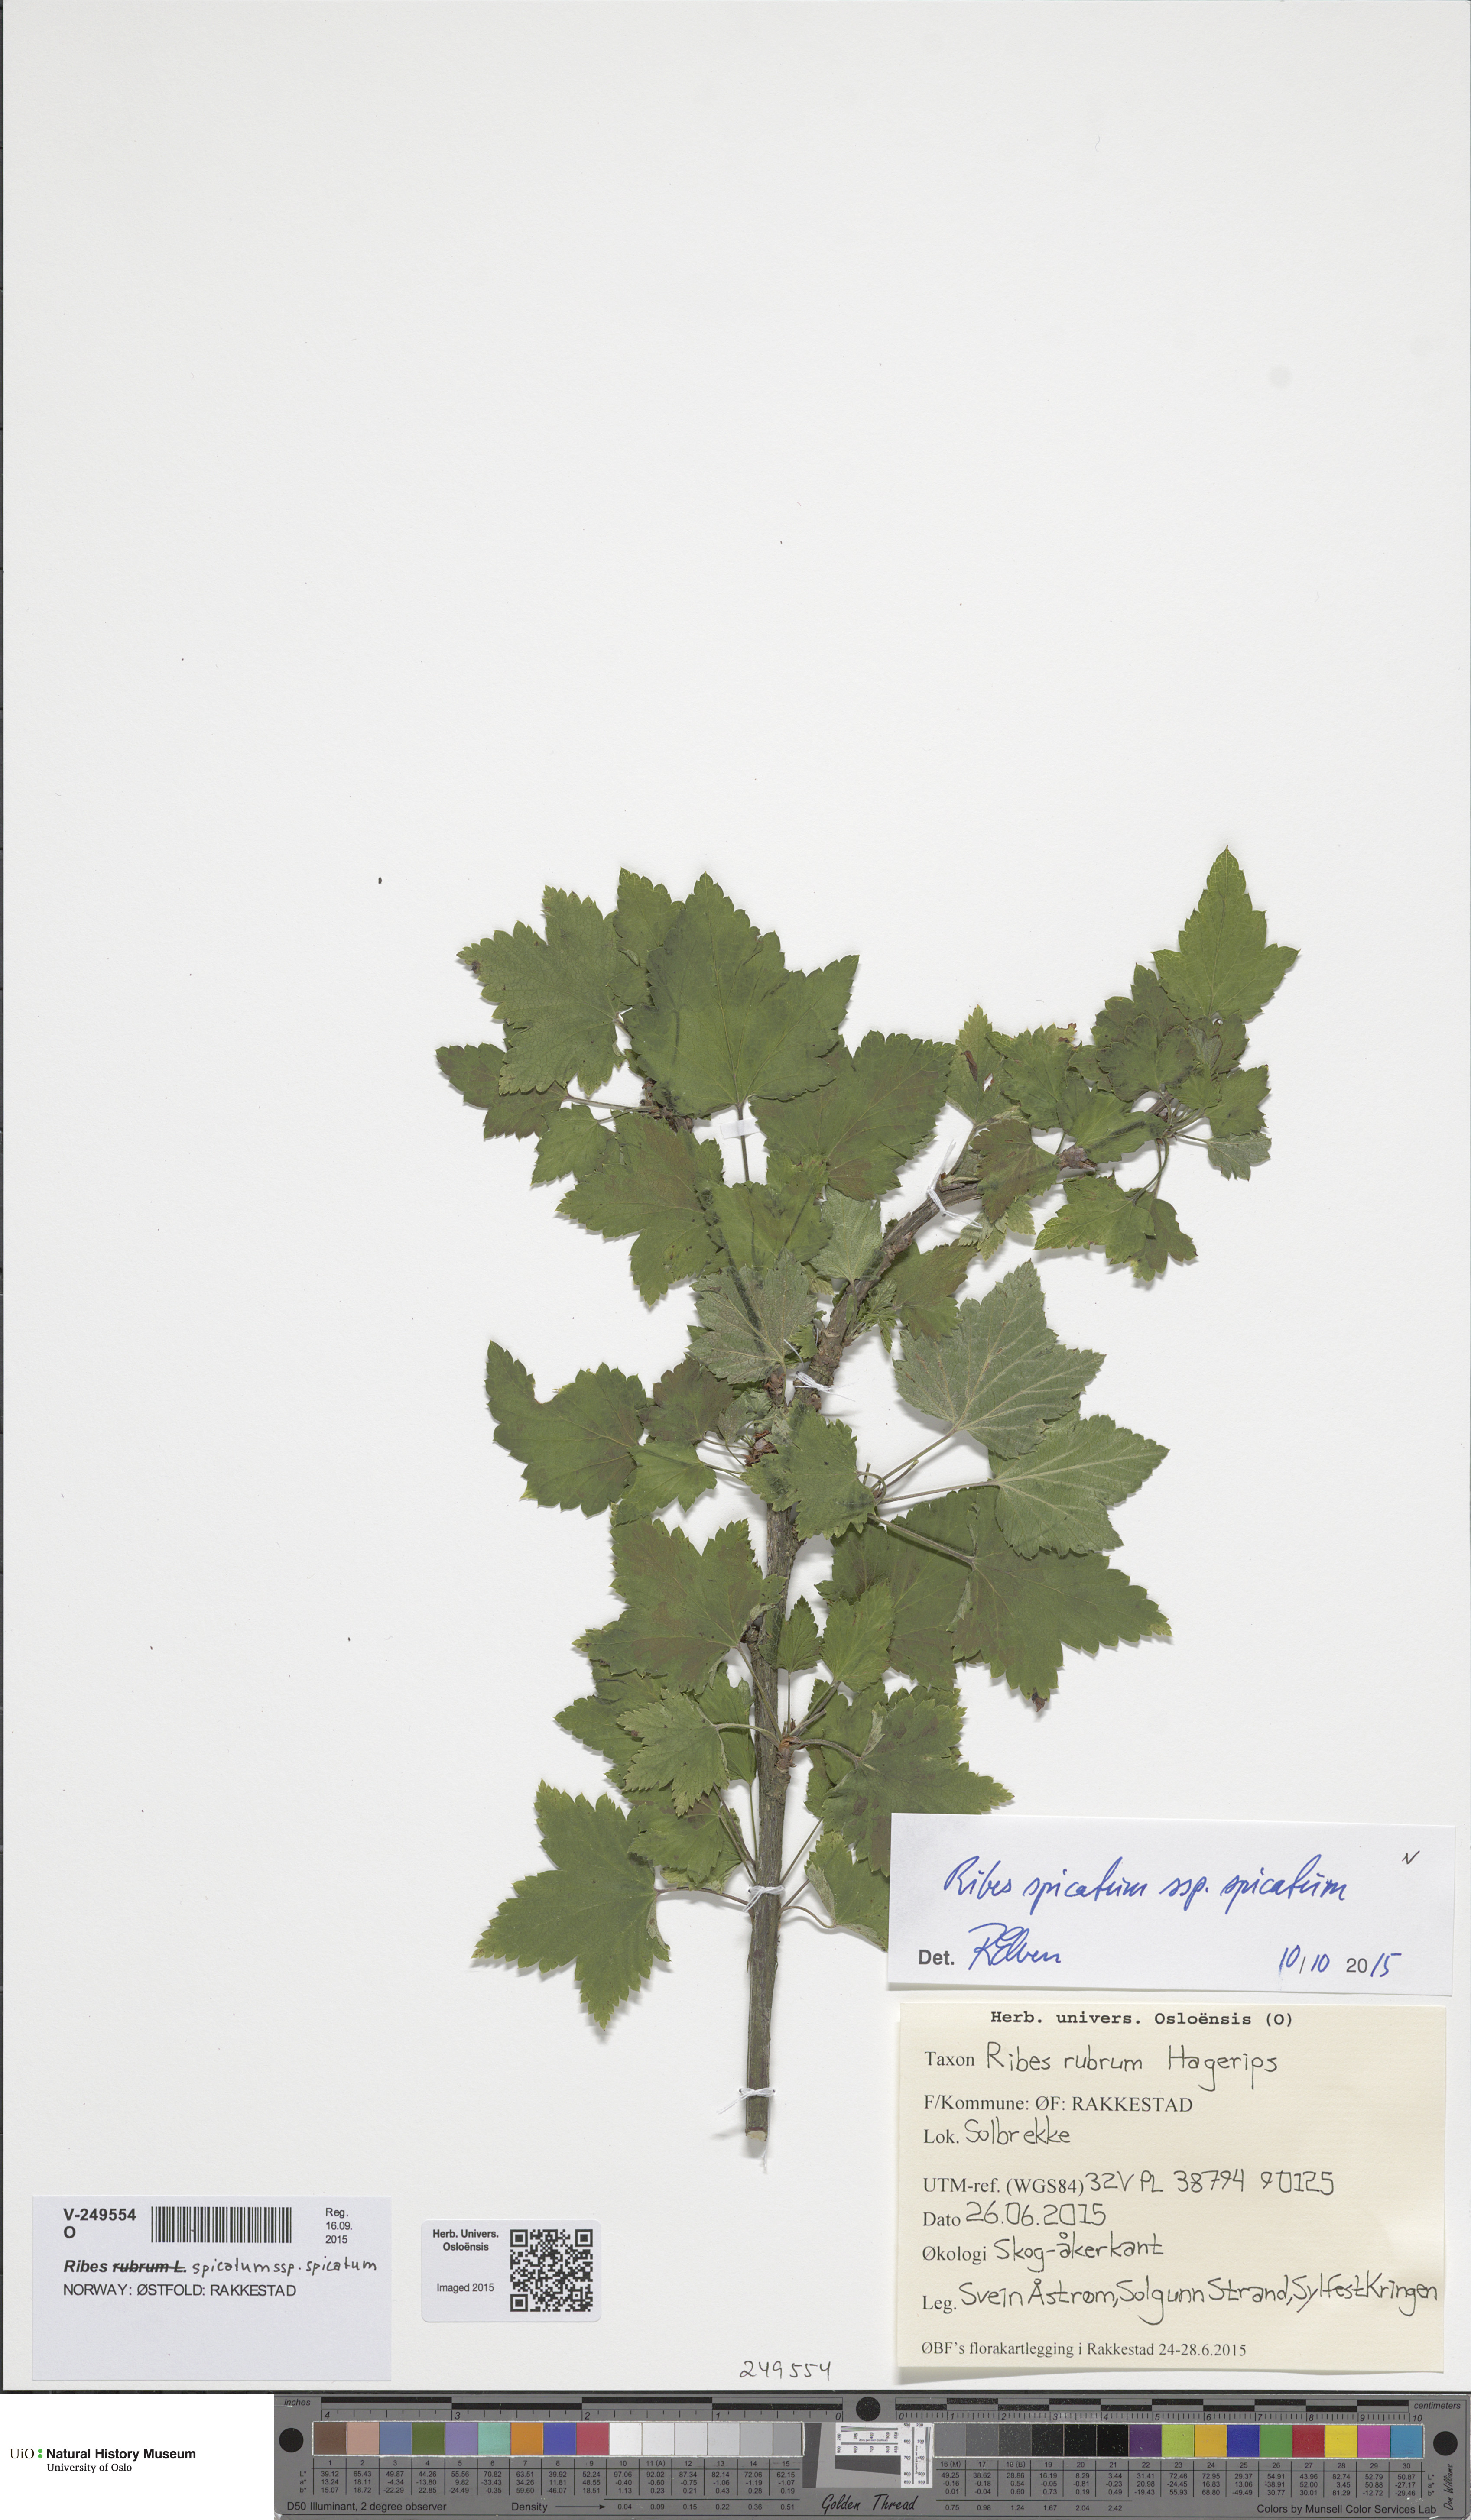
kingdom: Plantae
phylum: Tracheophyta
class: Magnoliopsida
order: Saxifragales
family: Grossulariaceae
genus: Ribes
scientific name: Ribes spicatum
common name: Downy currant
